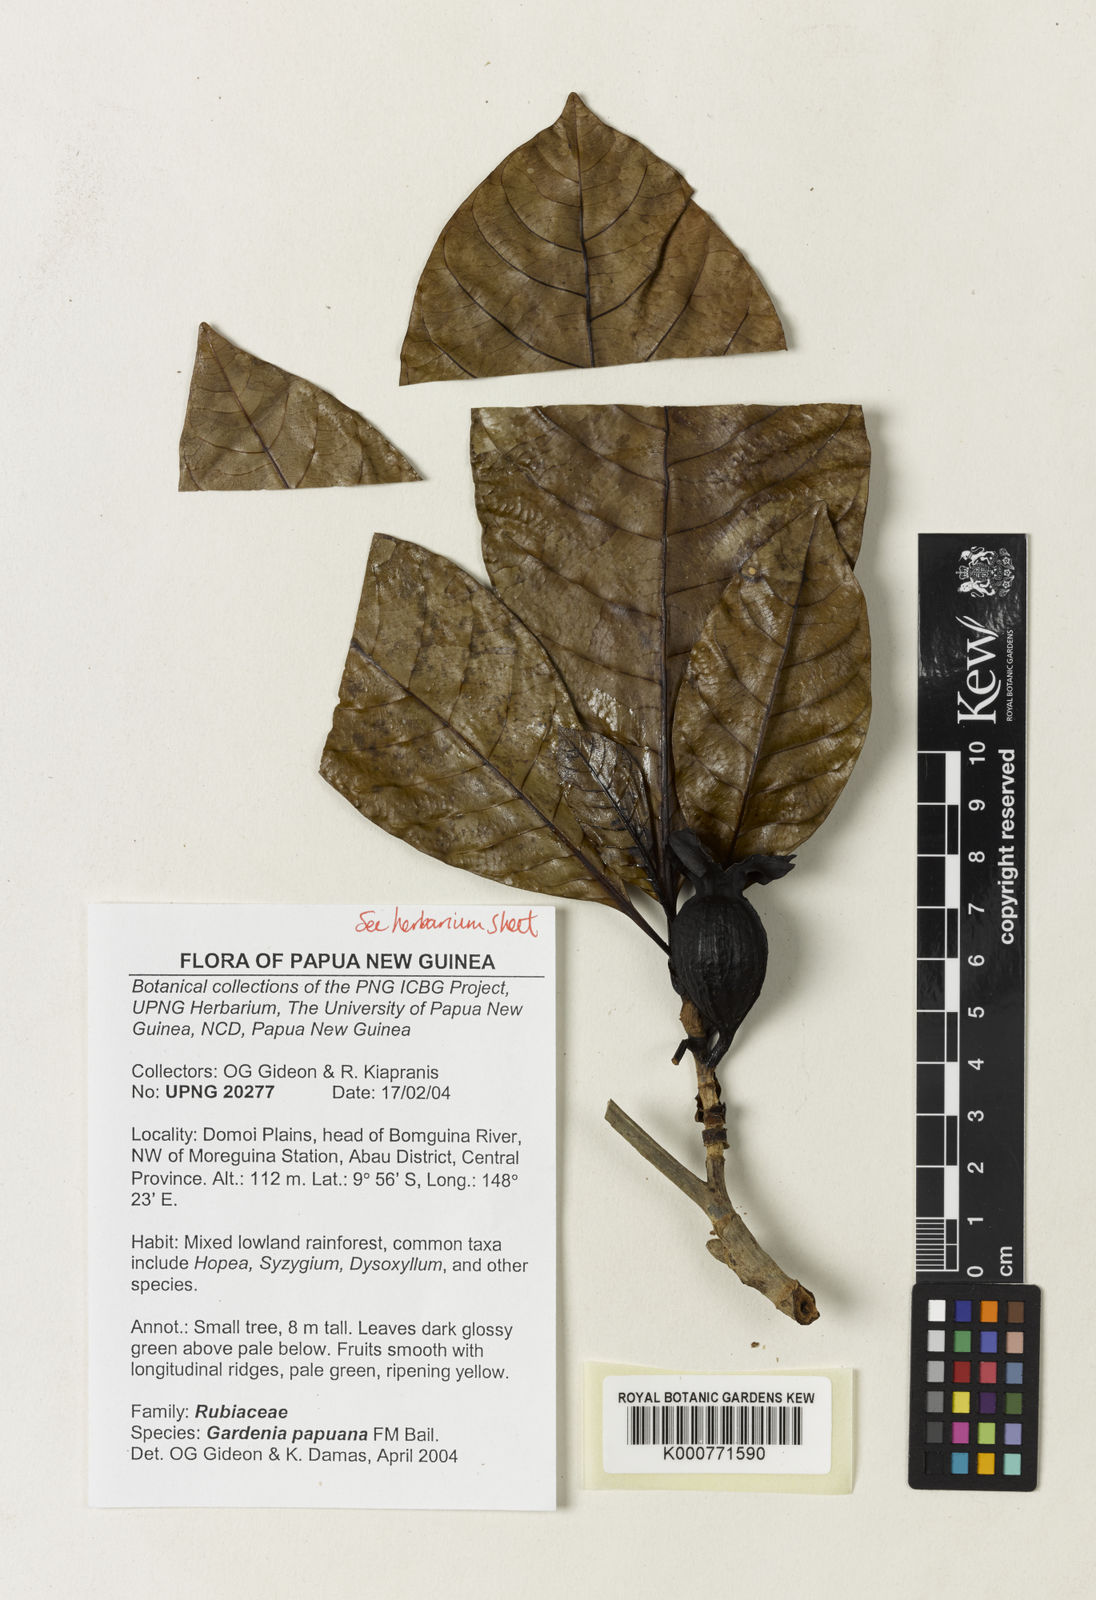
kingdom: Plantae
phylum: Tracheophyta
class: Magnoliopsida
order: Gentianales
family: Rubiaceae
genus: Gardenia
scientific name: Gardenia papuana
